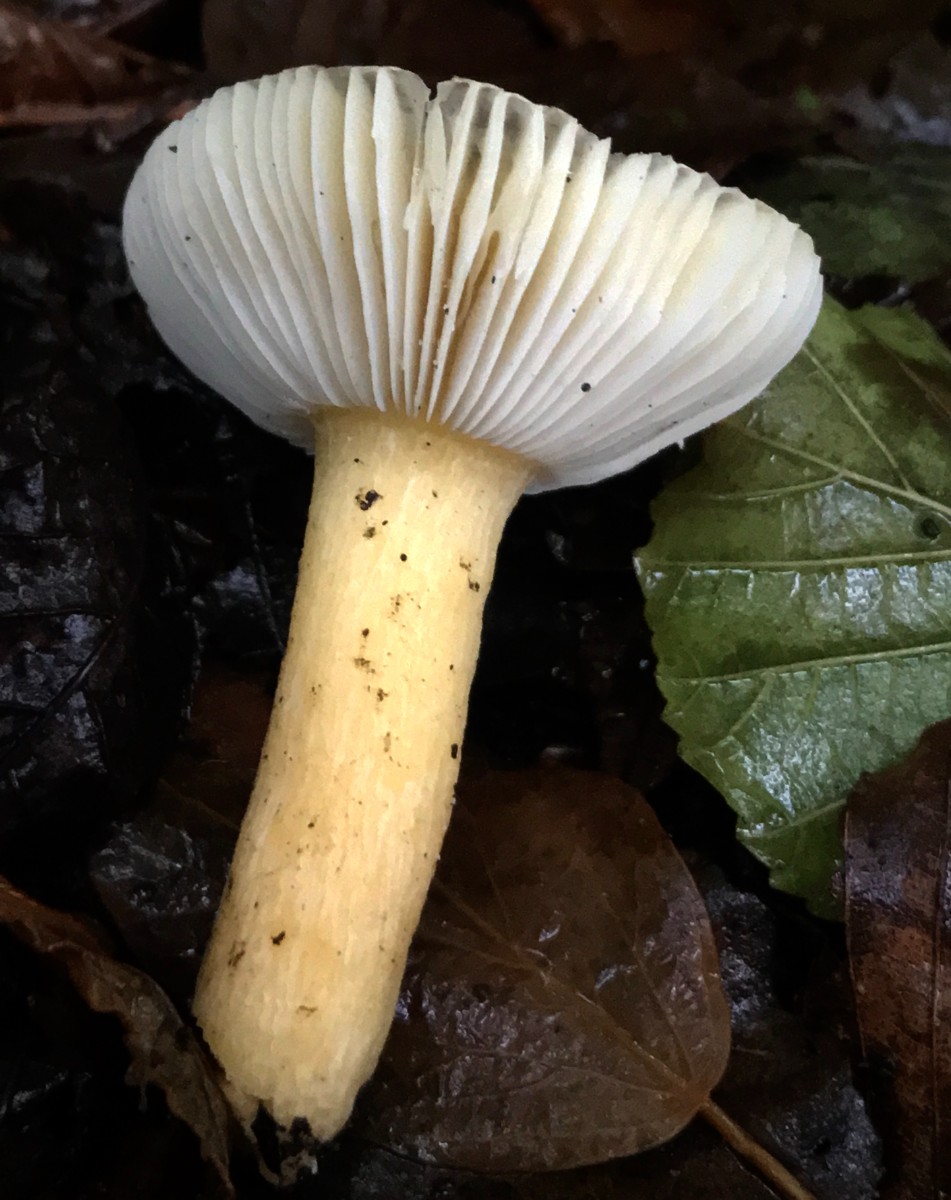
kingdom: Fungi
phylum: Basidiomycota
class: Agaricomycetes
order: Russulales
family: Russulaceae
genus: Russula
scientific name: Russula puellaris
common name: gulstokket skørhat
